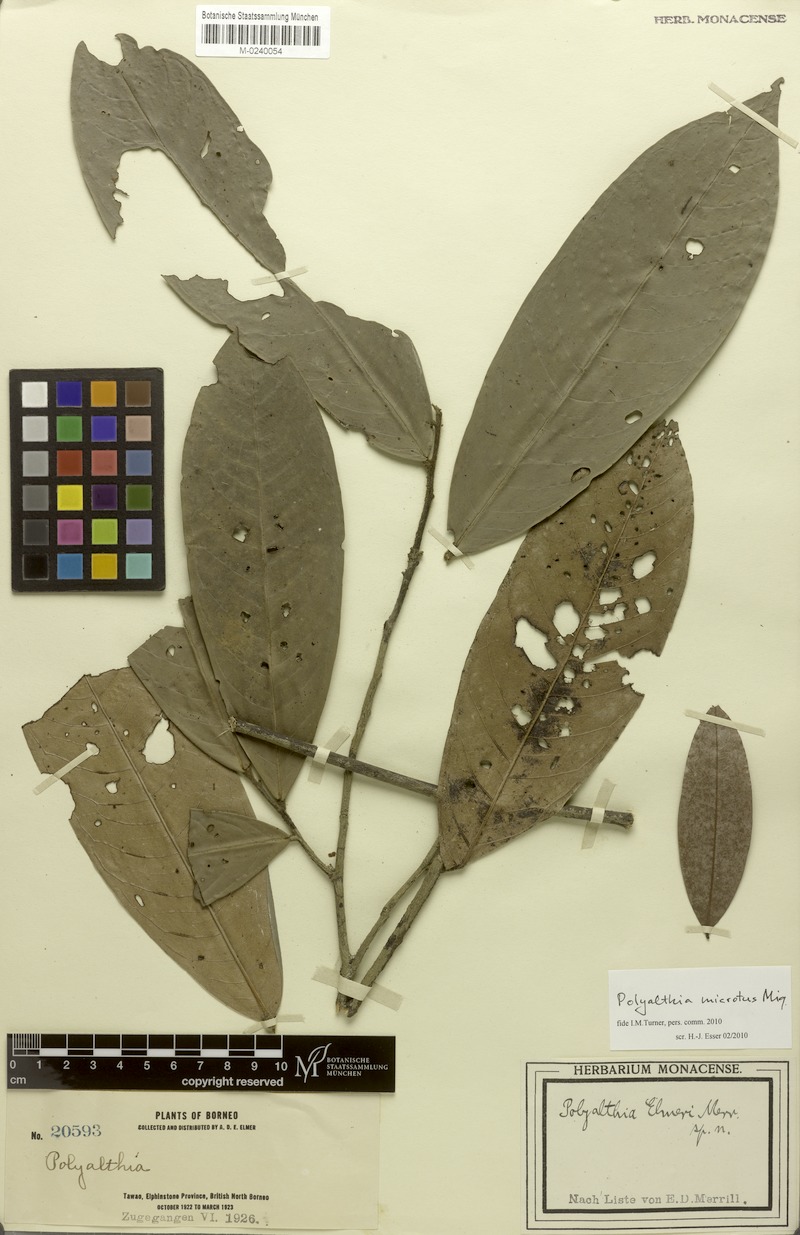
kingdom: Plantae
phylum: Tracheophyta
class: Magnoliopsida
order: Magnoliales
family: Annonaceae
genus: Polyalthia
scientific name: Polyalthia microtus
